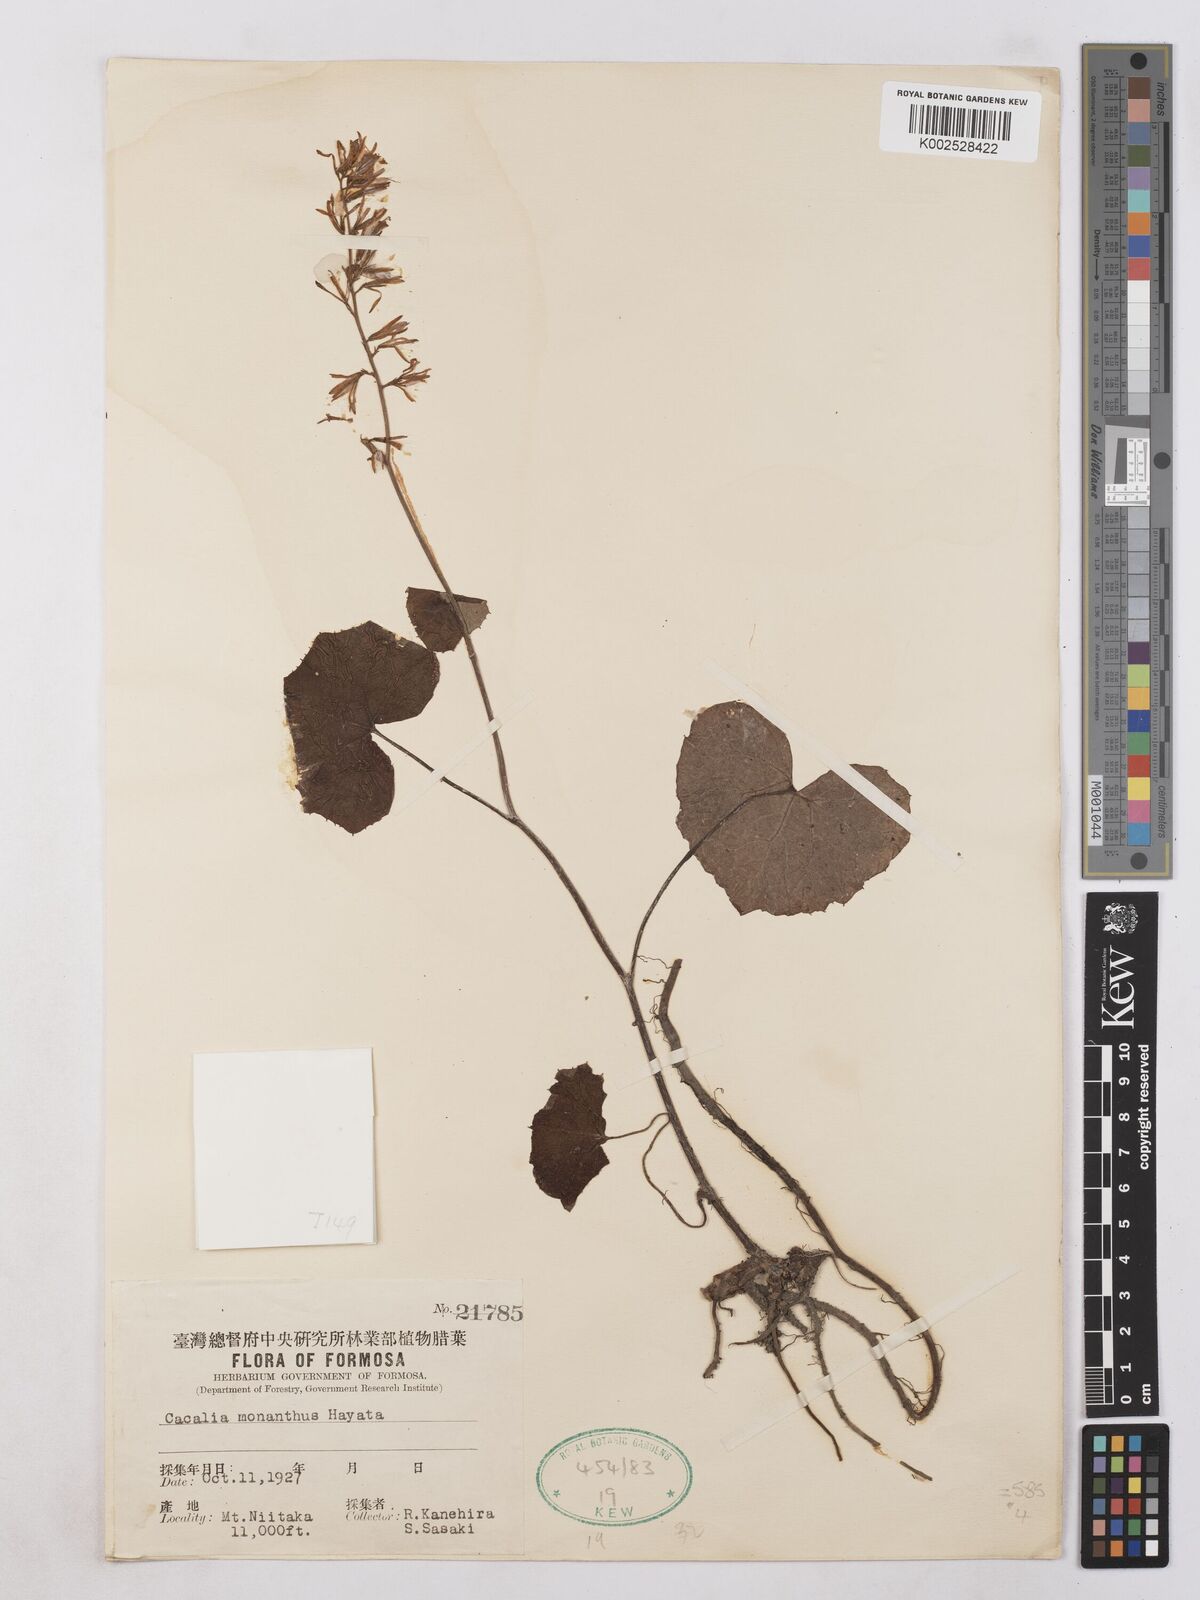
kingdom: Plantae
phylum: Tracheophyta
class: Magnoliopsida
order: Asterales
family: Asteraceae
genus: Parasenecio
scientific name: Parasenecio
